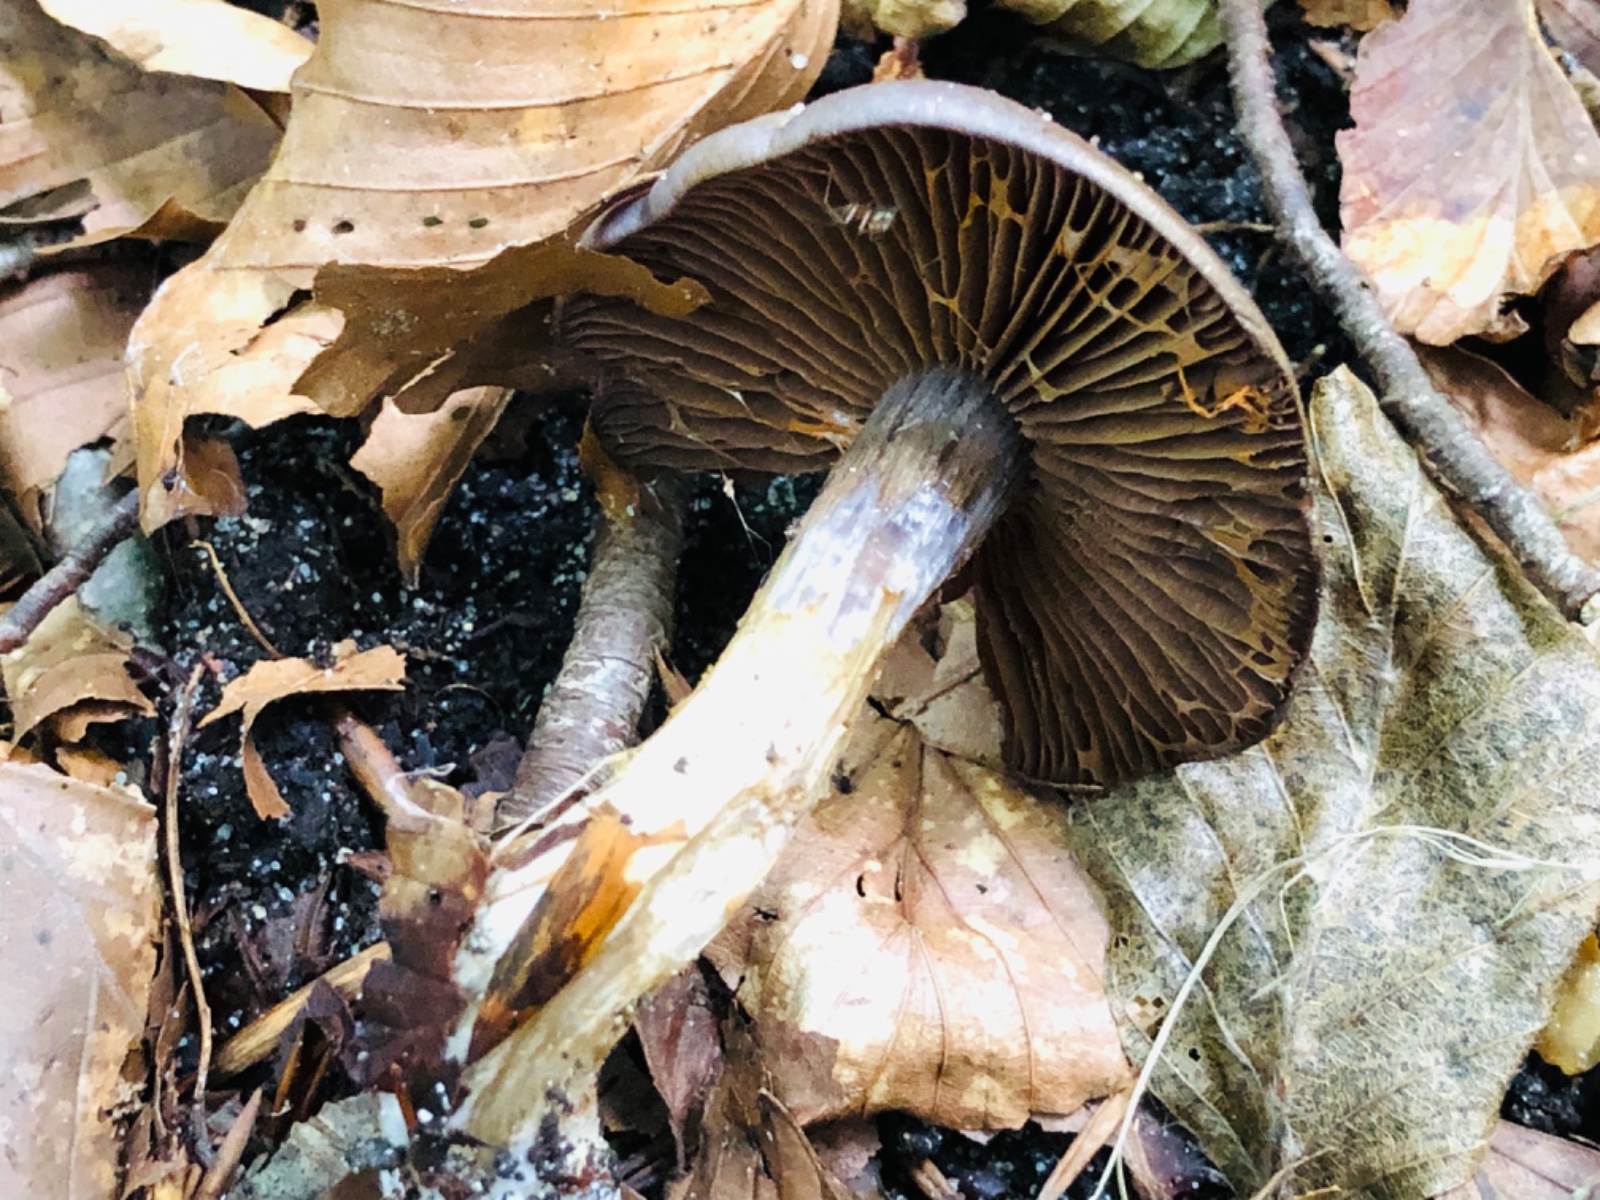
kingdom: Fungi
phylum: Basidiomycota
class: Agaricomycetes
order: Agaricales
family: Cortinariaceae
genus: Cortinarius
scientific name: Cortinarius
